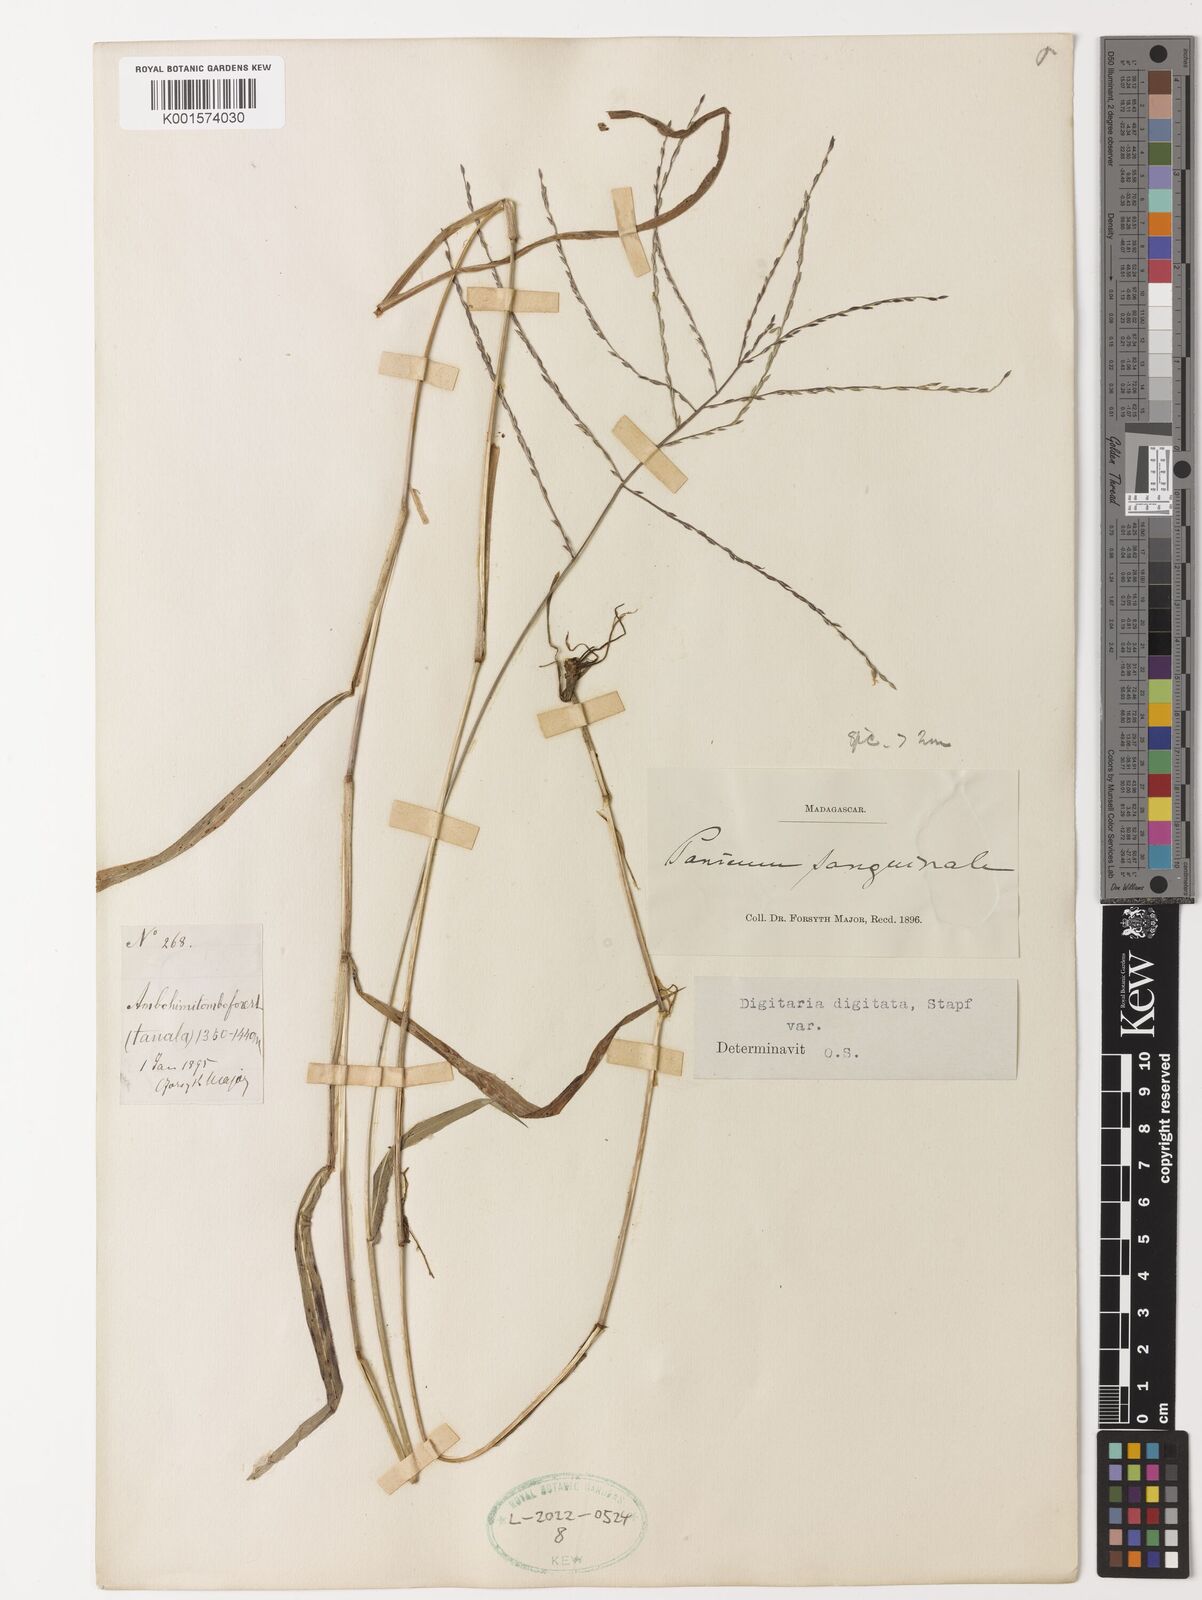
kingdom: Plantae
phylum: Tracheophyta
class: Liliopsida
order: Poales
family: Poaceae
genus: Digitaria
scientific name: Digitaria horizontalis
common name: Jamaican crabgrass
